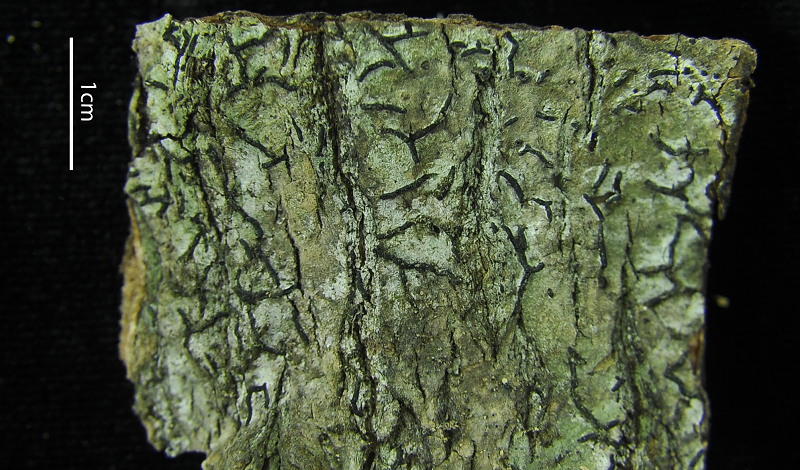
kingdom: Fungi
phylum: Ascomycota
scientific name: Ascomycota
